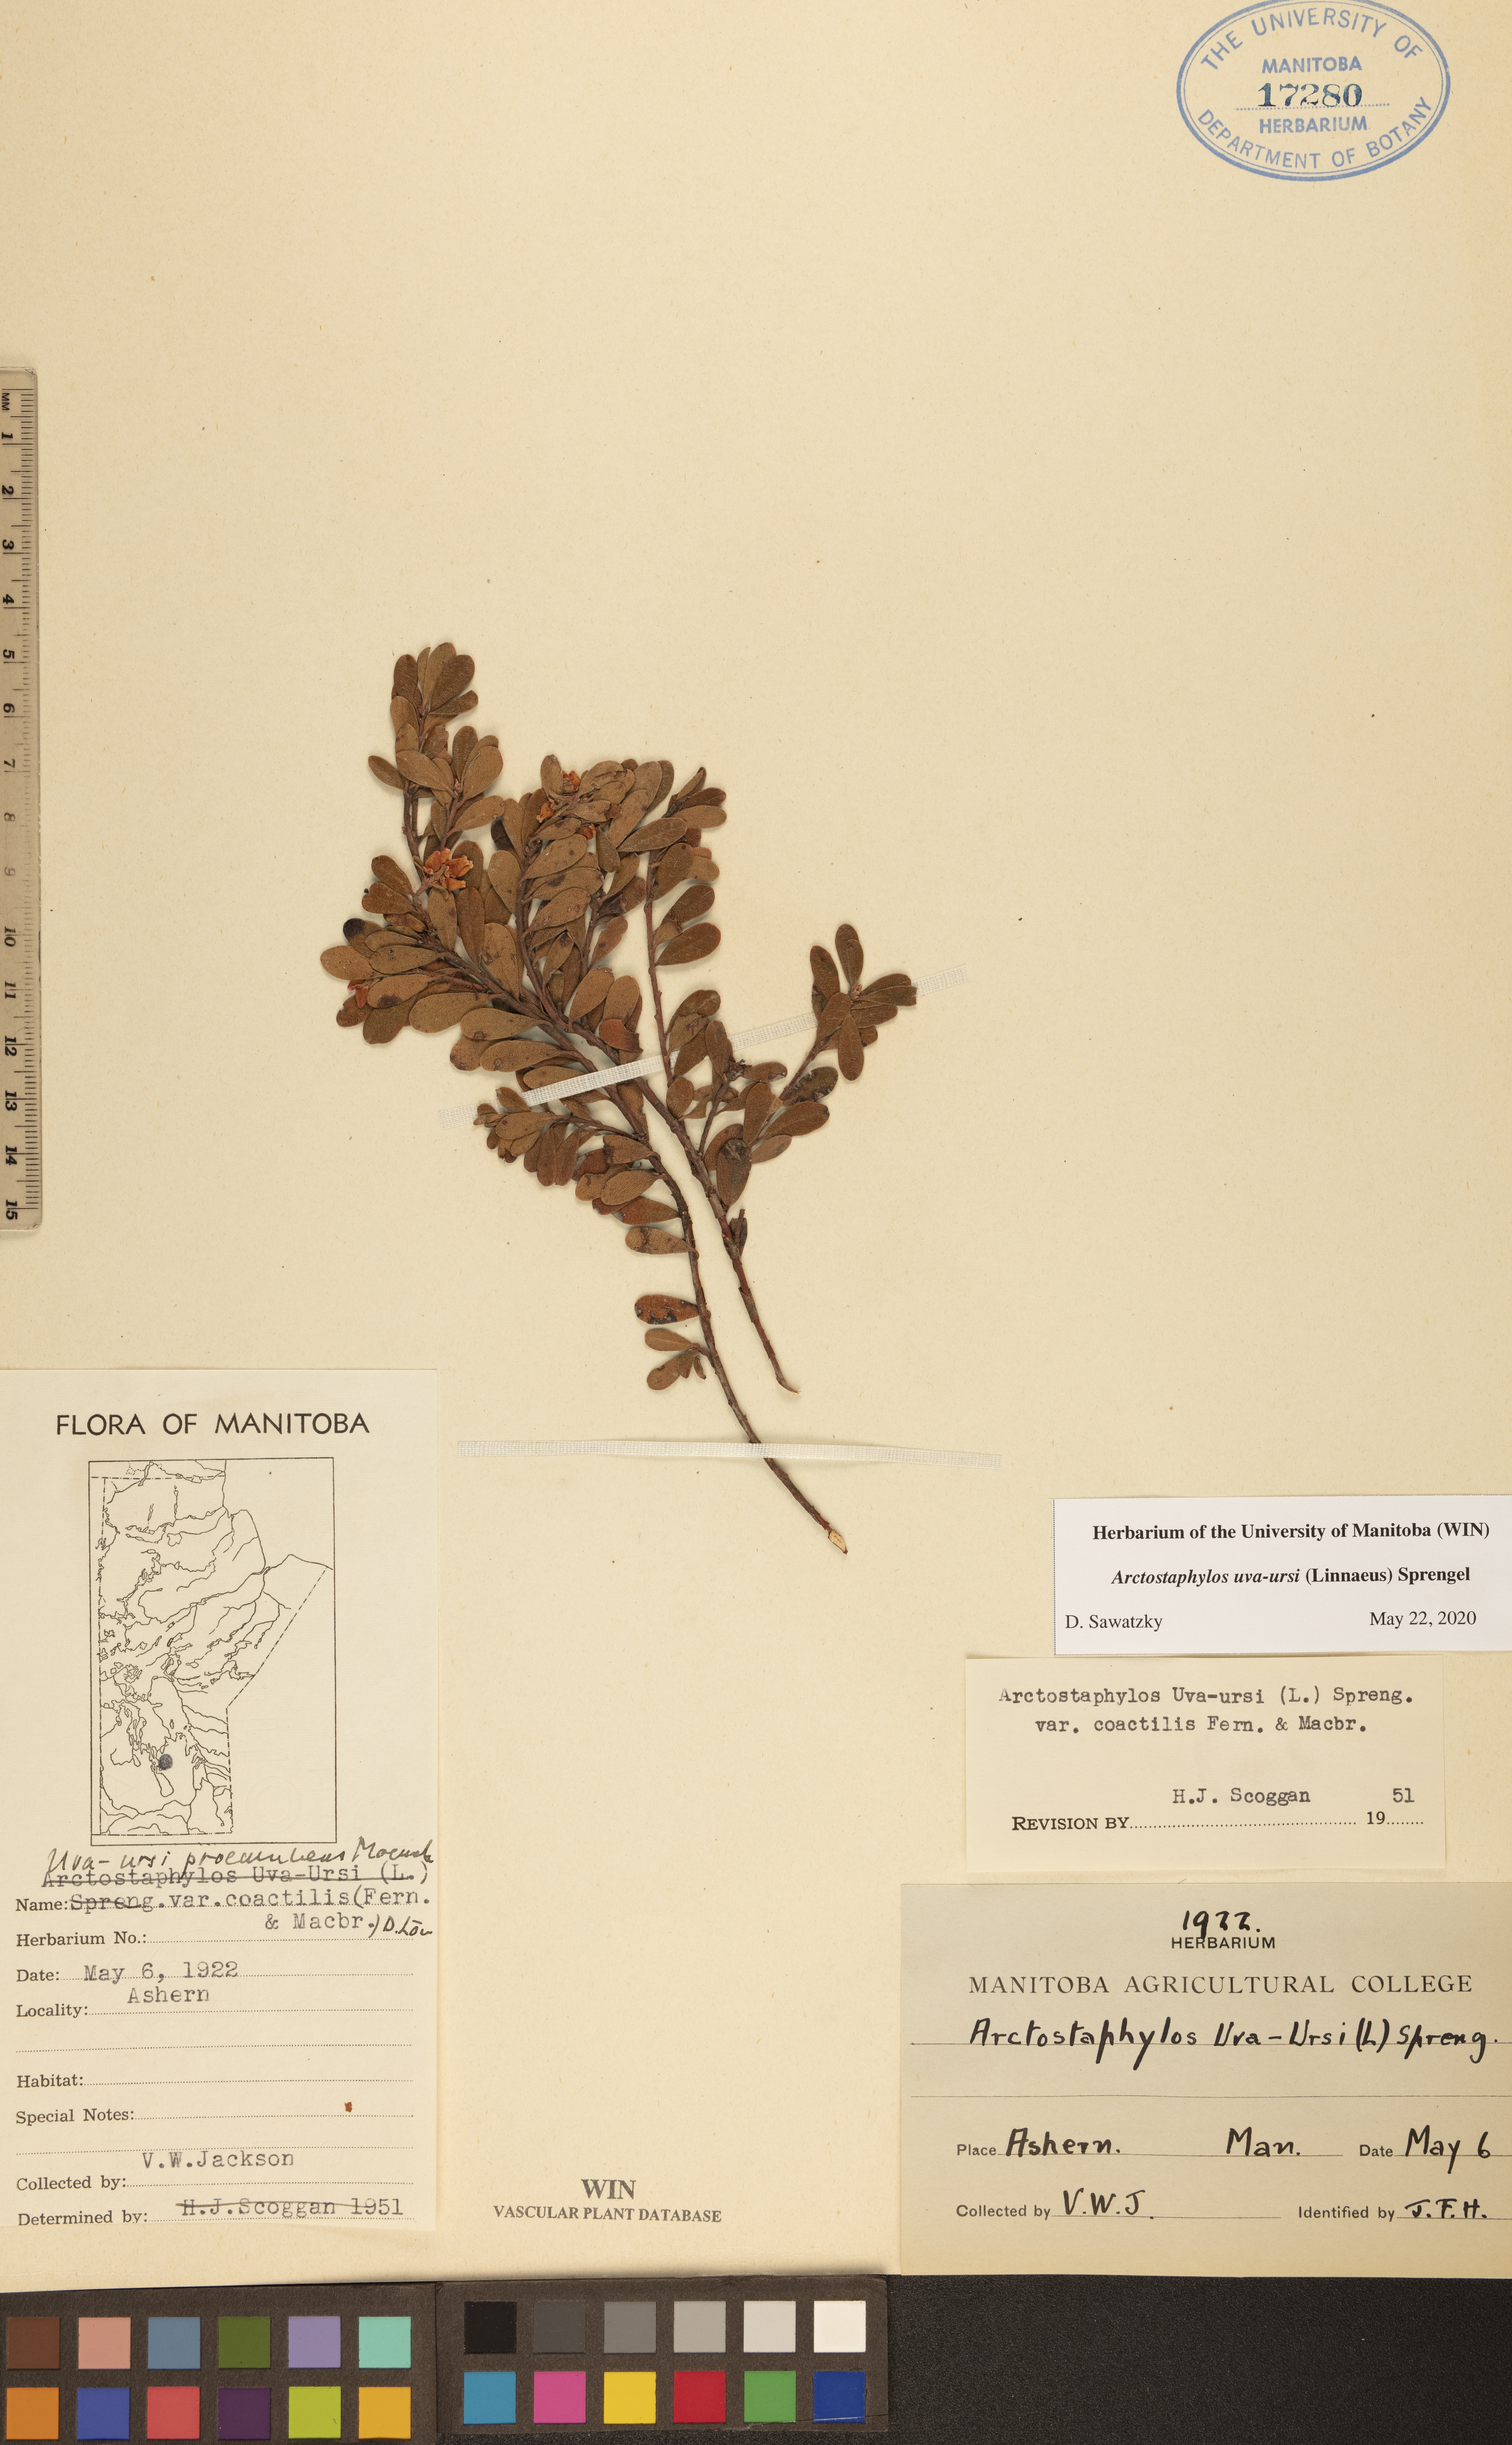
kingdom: Plantae
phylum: Tracheophyta
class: Magnoliopsida
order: Ericales
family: Ericaceae
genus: Arctostaphylos
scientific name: Arctostaphylos uva-ursi
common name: Bearberry
